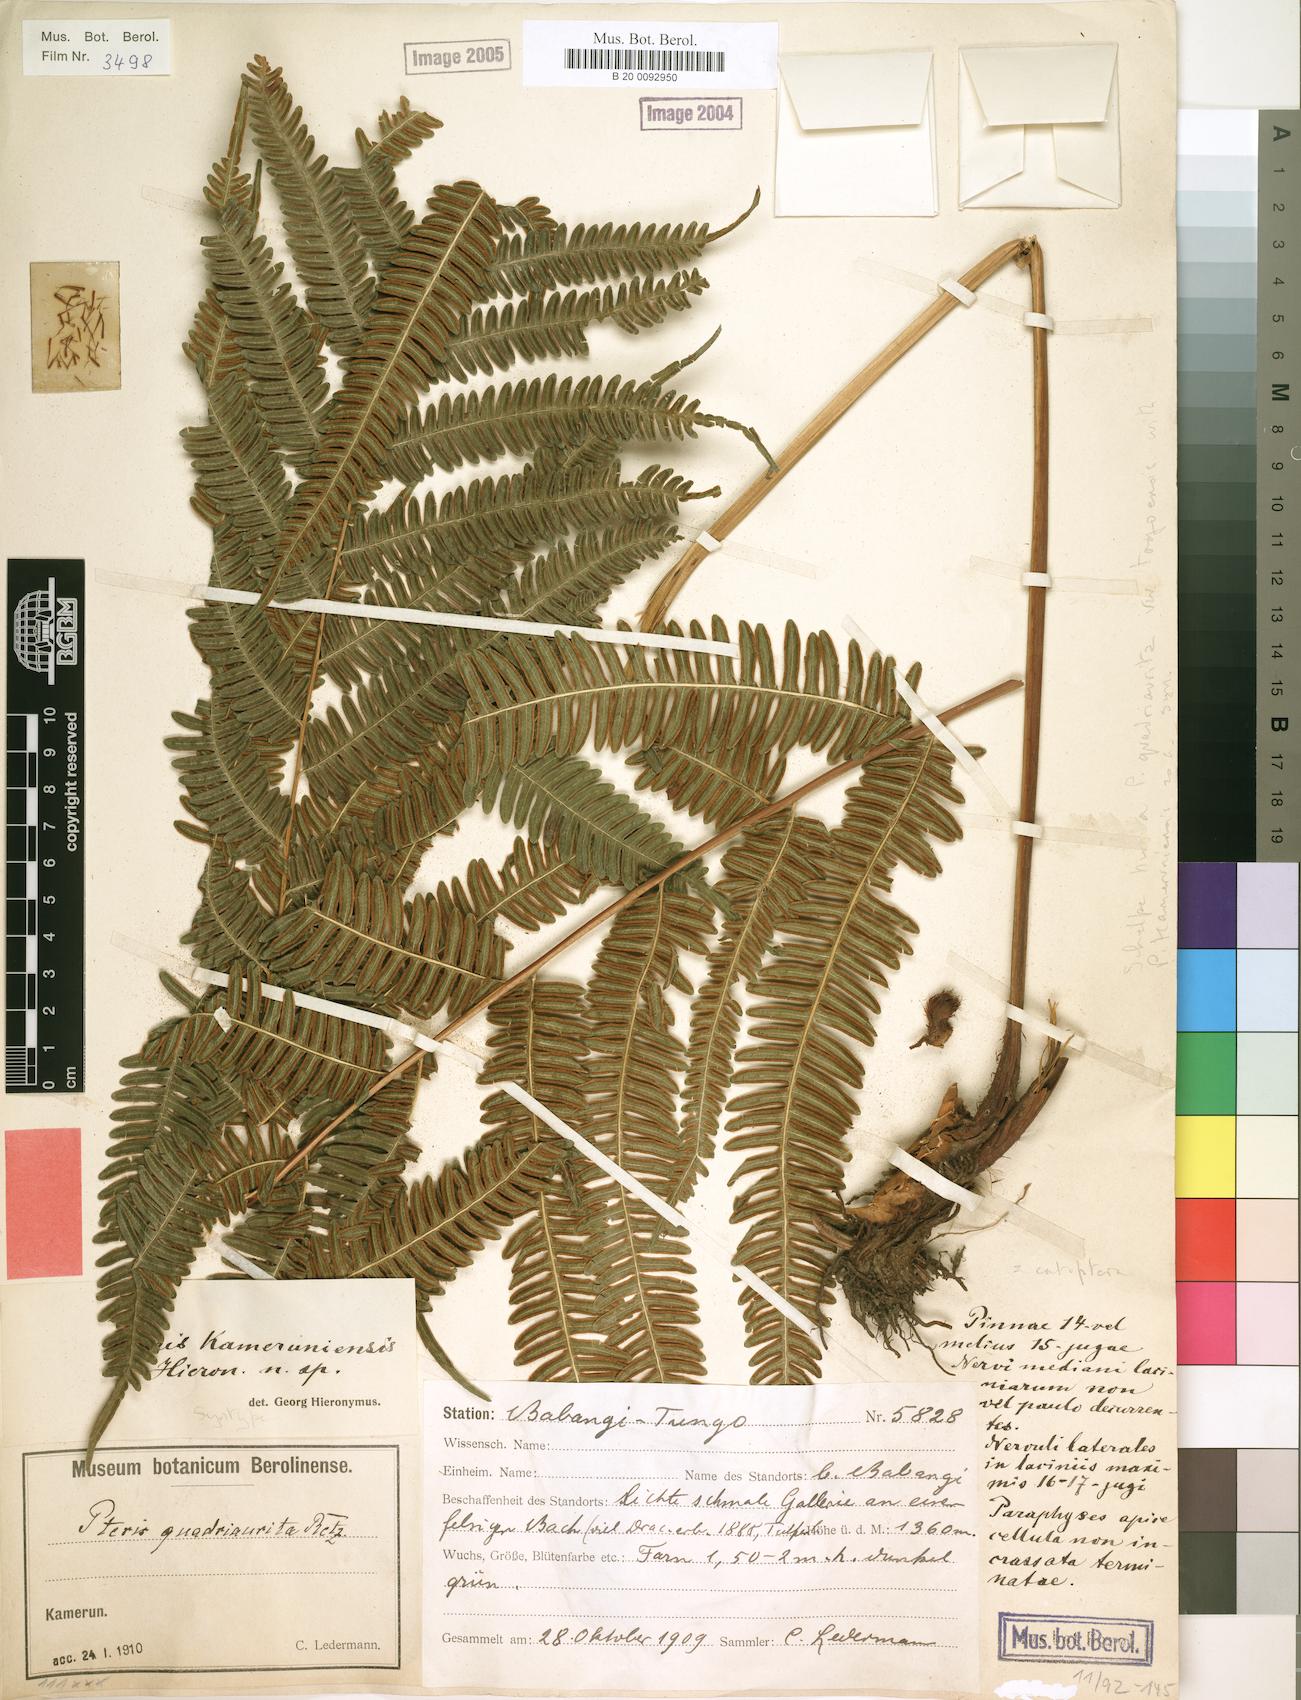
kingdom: Plantae
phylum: Tracheophyta
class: Polypodiopsida
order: Polypodiales
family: Pteridaceae
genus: Pteris
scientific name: Pteris catoptera
